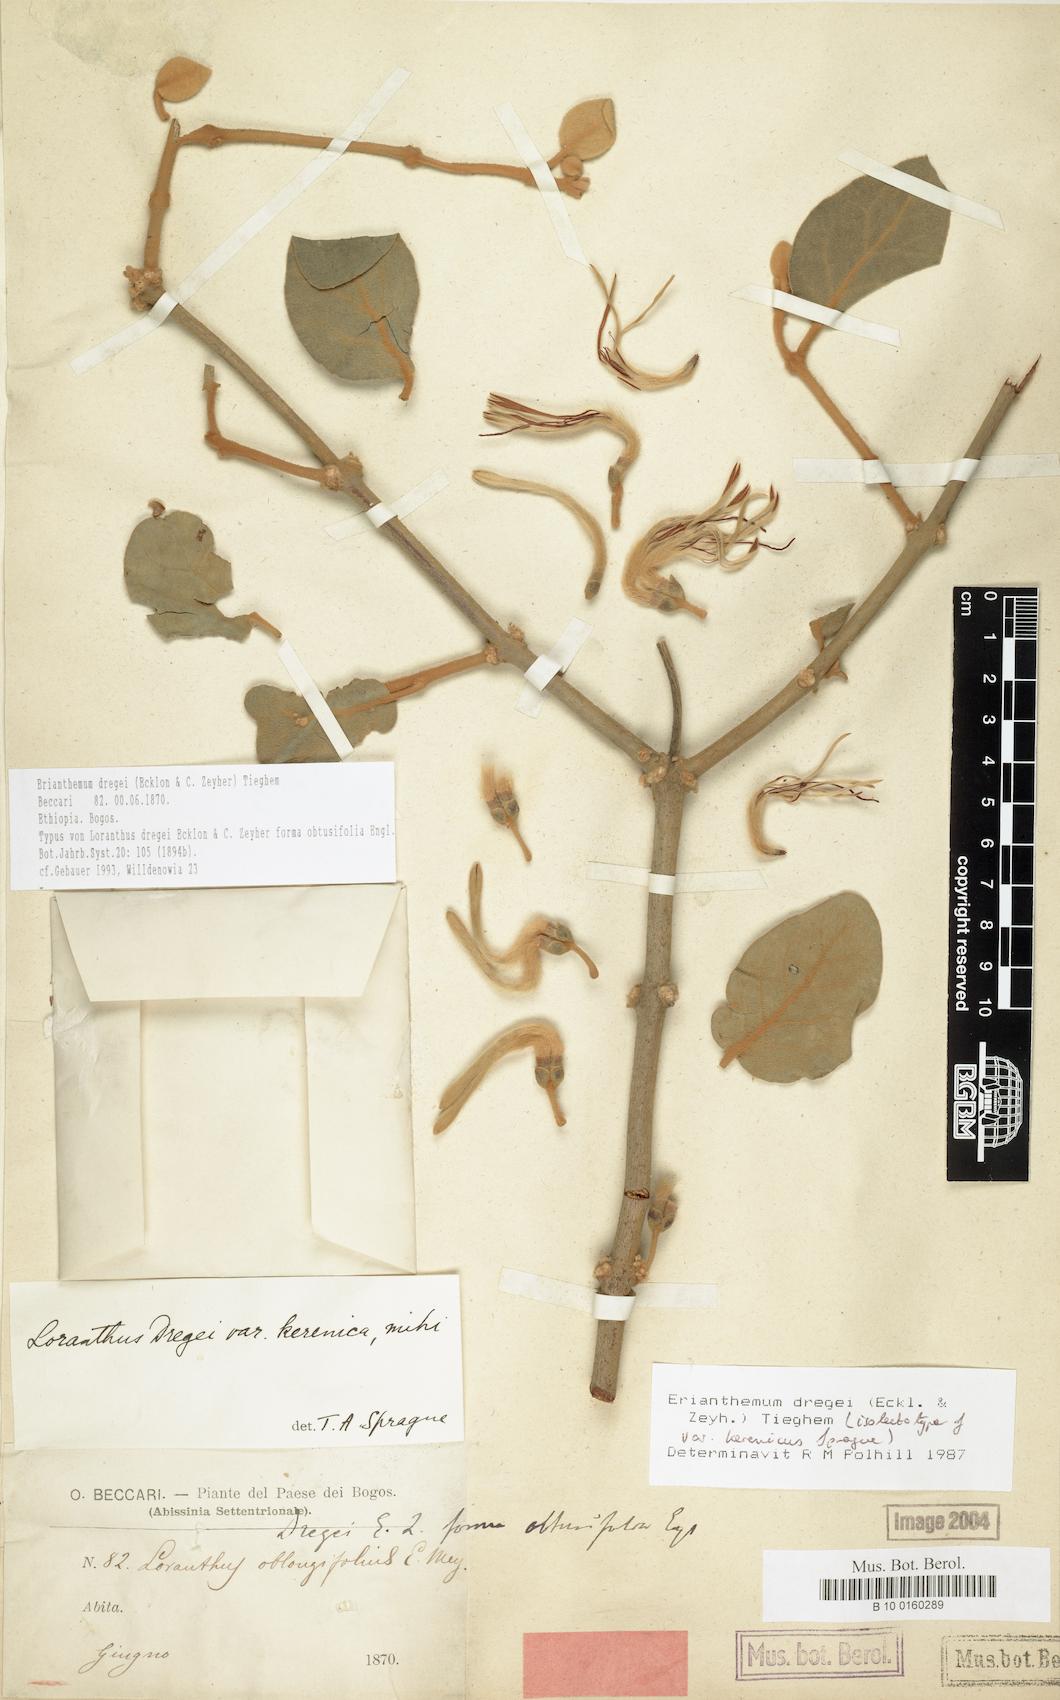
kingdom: Plantae
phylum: Tracheophyta
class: Magnoliopsida
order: Santalales
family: Loranthaceae
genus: Erianthemum
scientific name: Erianthemum dregei
